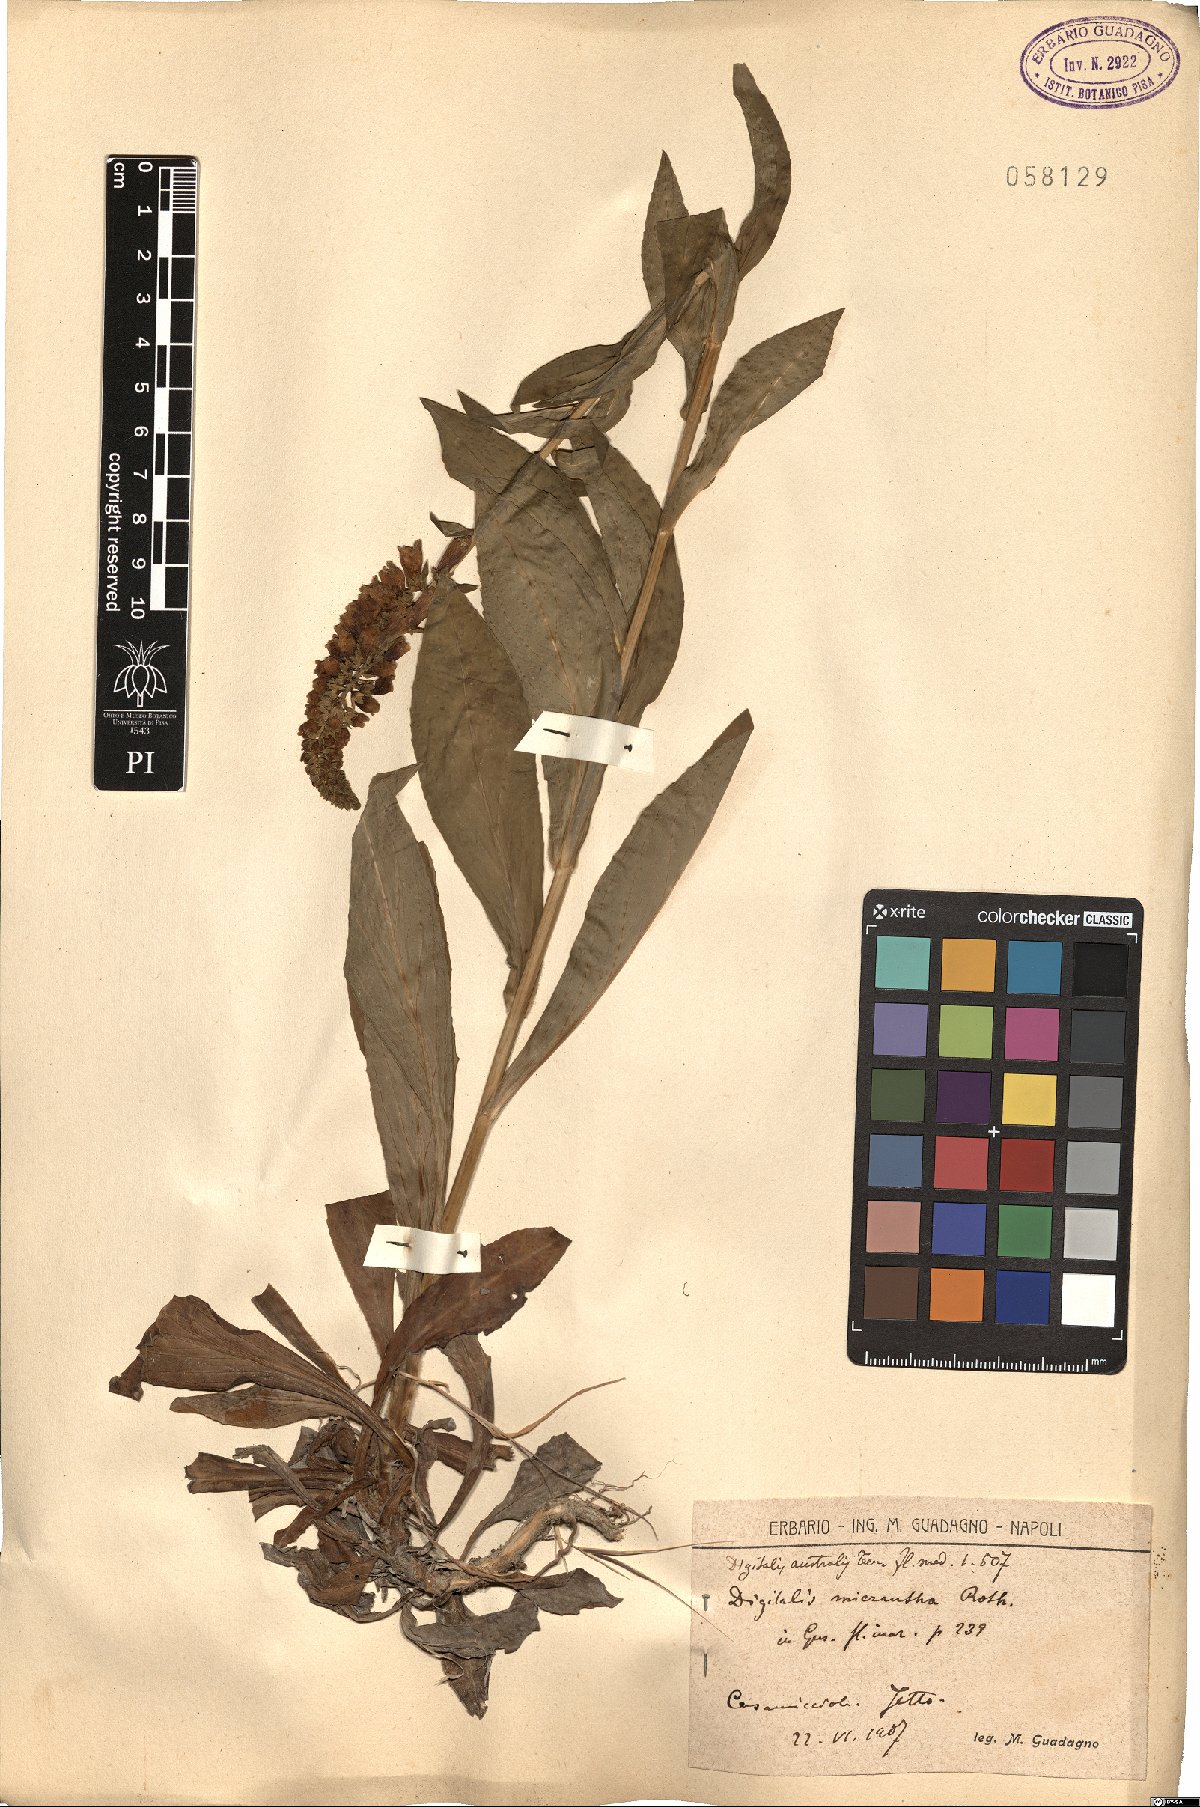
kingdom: Plantae
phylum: Tracheophyta
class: Magnoliopsida
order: Lamiales
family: Plantaginaceae
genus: Digitalis
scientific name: Digitalis lutea
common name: Straw foxglove
